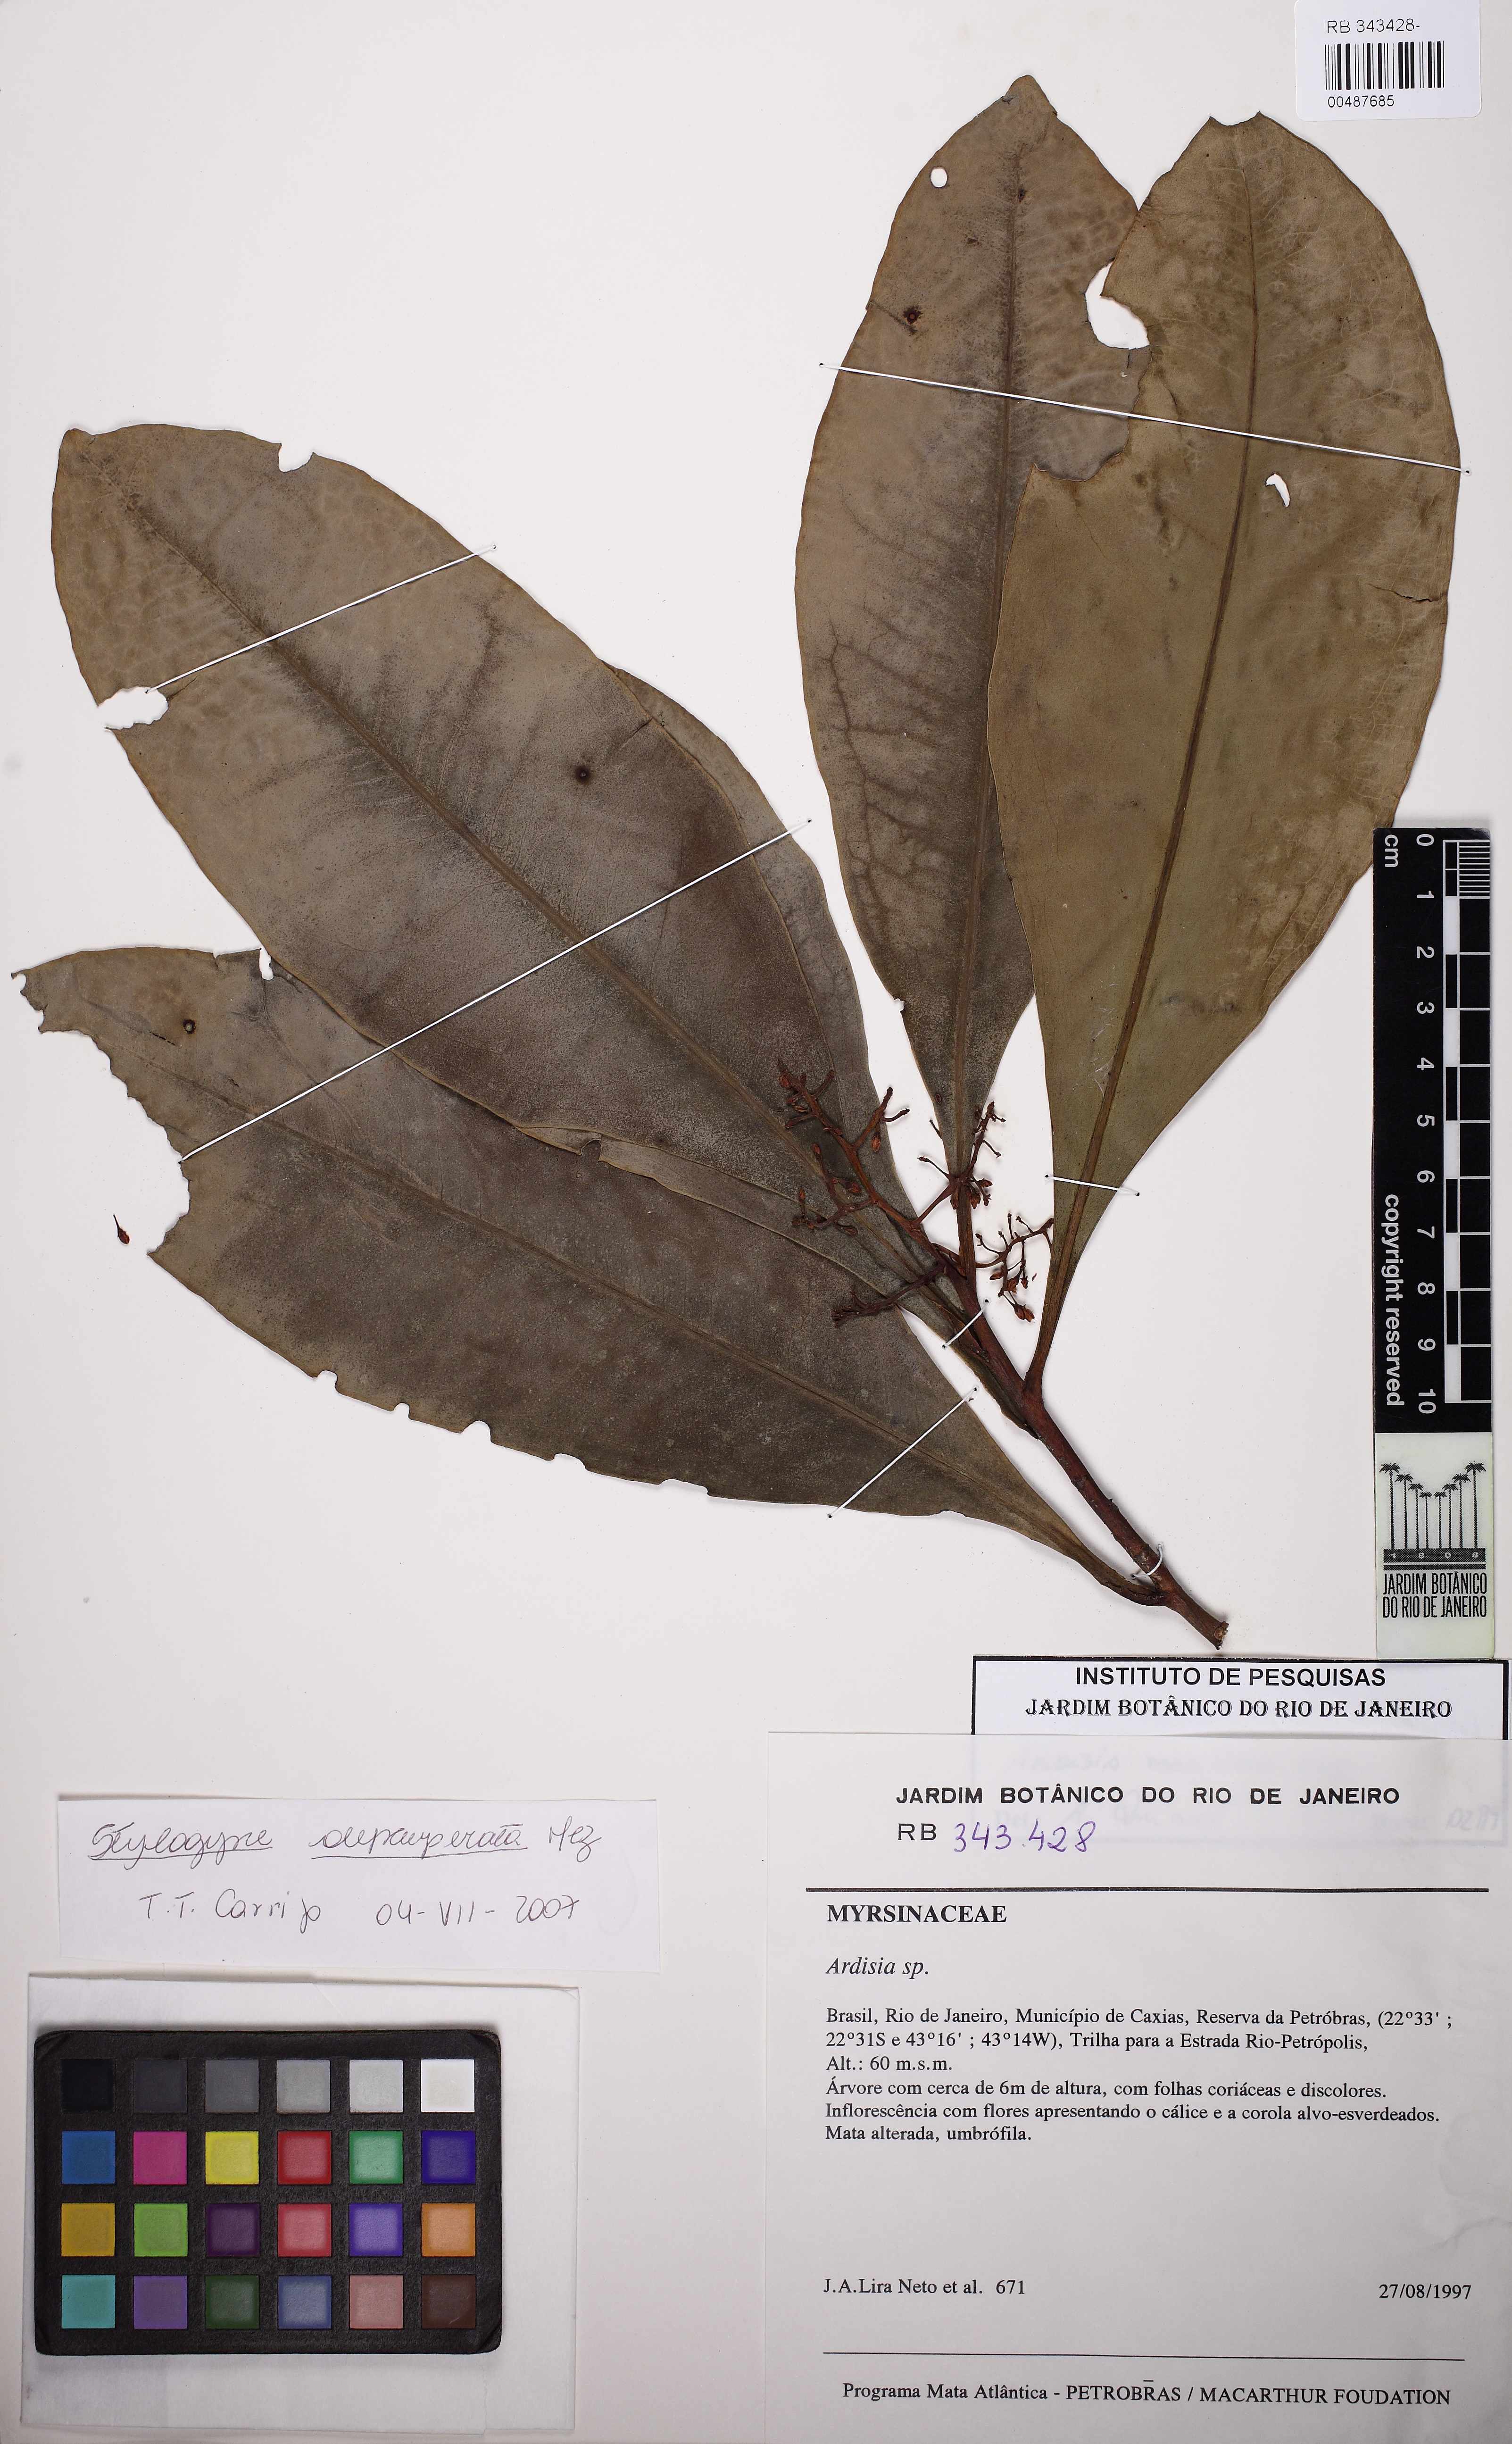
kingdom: Plantae
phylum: Tracheophyta
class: Magnoliopsida
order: Ericales
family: Primulaceae
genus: Stylogyne
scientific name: Stylogyne lhotzkyana
